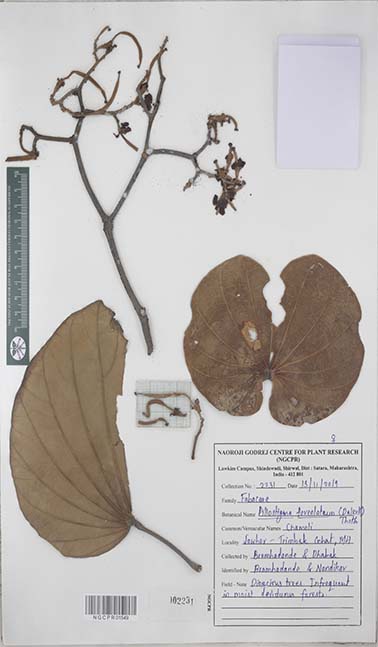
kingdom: Plantae
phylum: Tracheophyta
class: Magnoliopsida
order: Fabales
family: Fabaceae
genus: Piliostigma
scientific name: Piliostigma foveolatum
